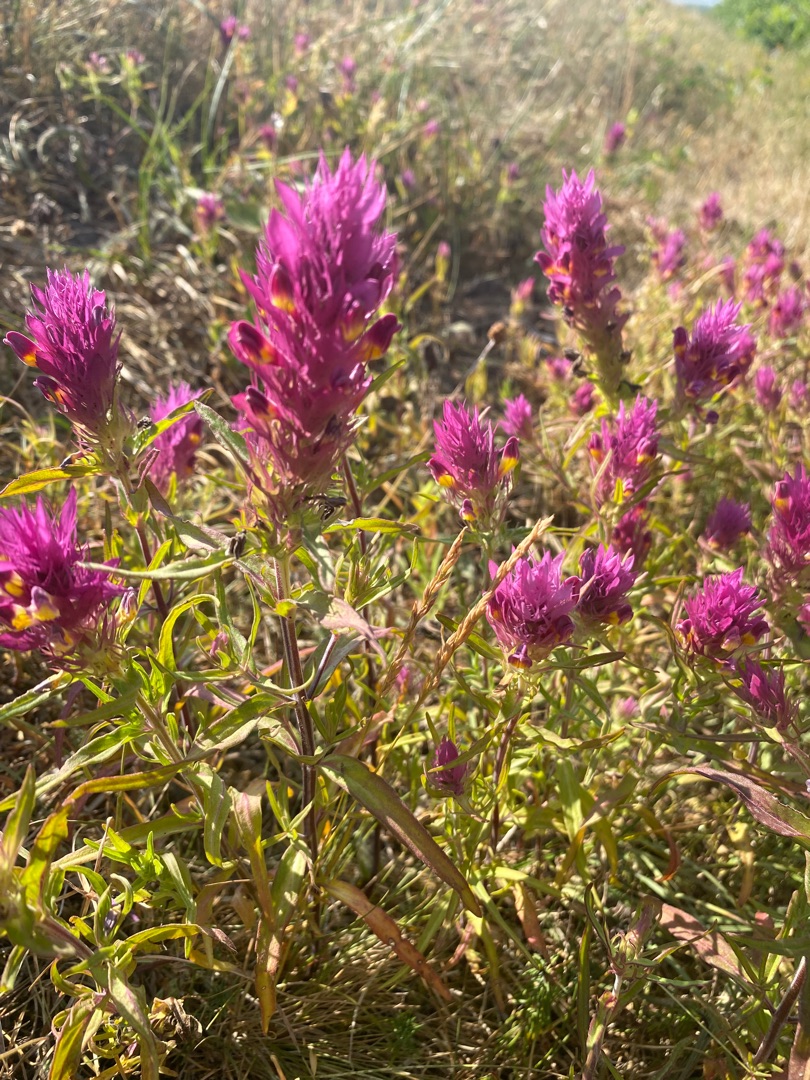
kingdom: Plantae
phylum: Tracheophyta
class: Magnoliopsida
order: Lamiales
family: Orobanchaceae
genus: Melampyrum
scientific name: Melampyrum arvense
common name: Ager-kohvede
